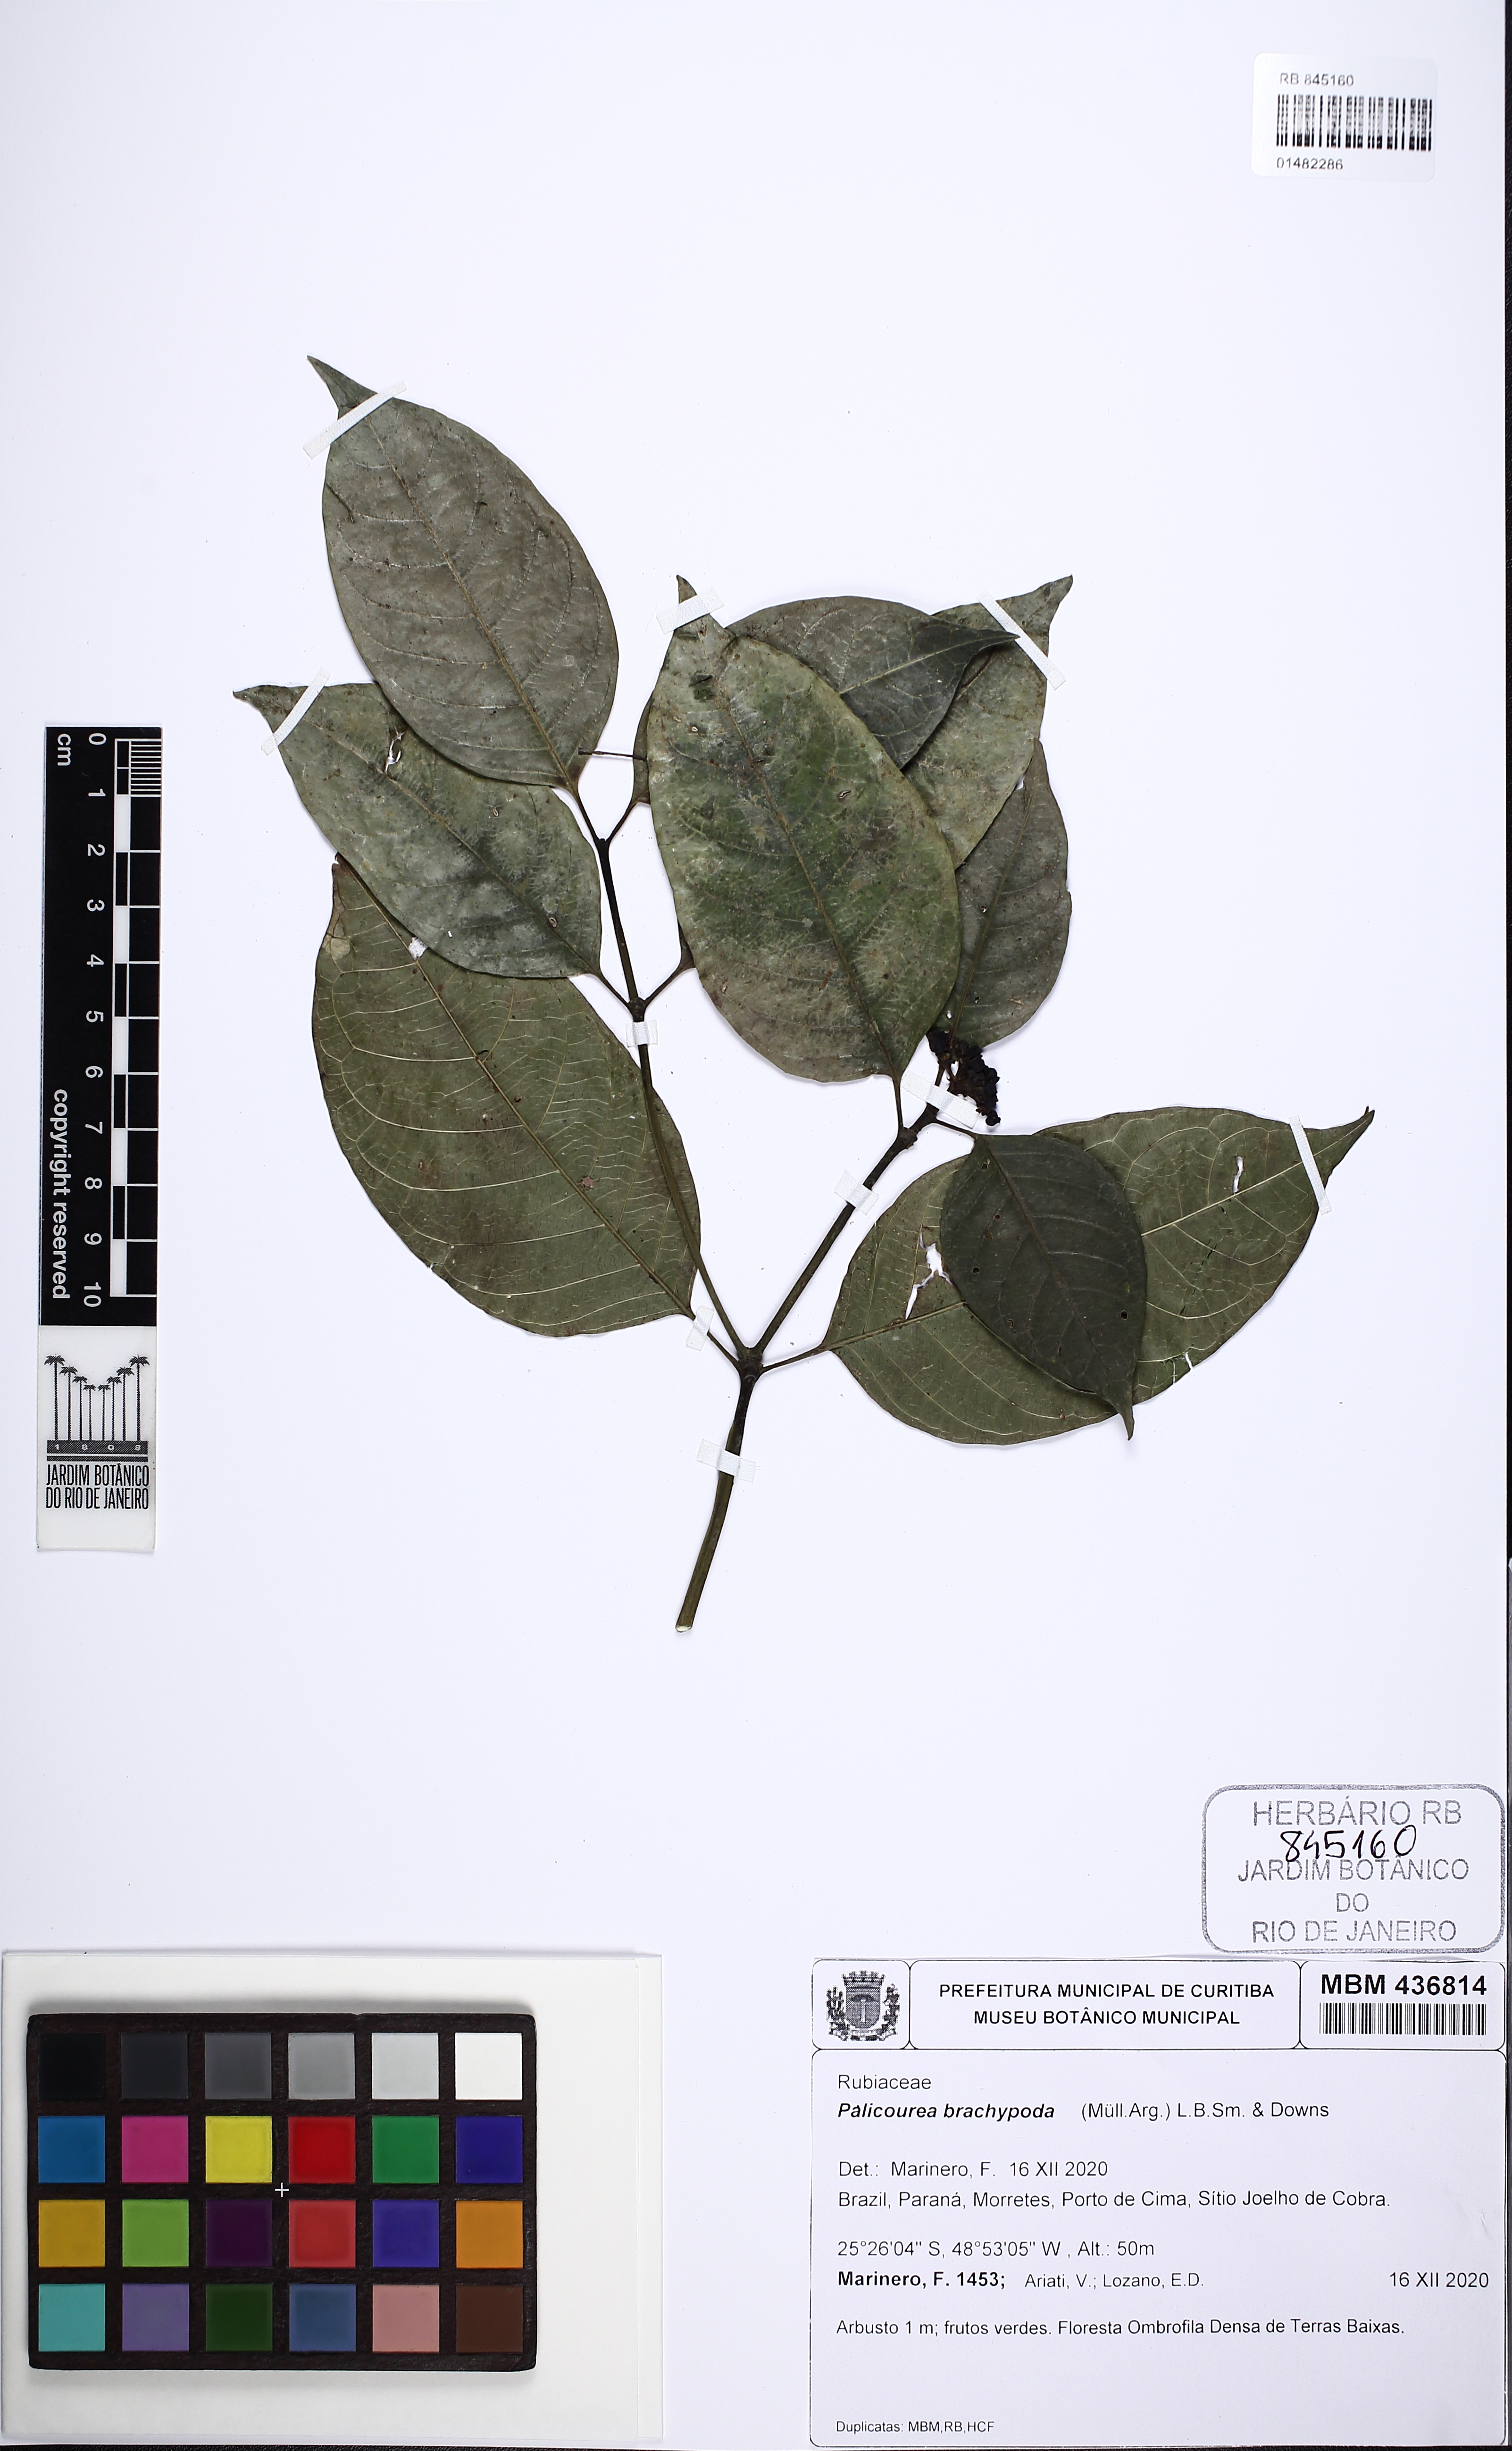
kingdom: Plantae
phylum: Tracheophyta
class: Magnoliopsida
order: Gentianales
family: Rubiaceae
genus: Psychotria
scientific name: Psychotria brachypoda
